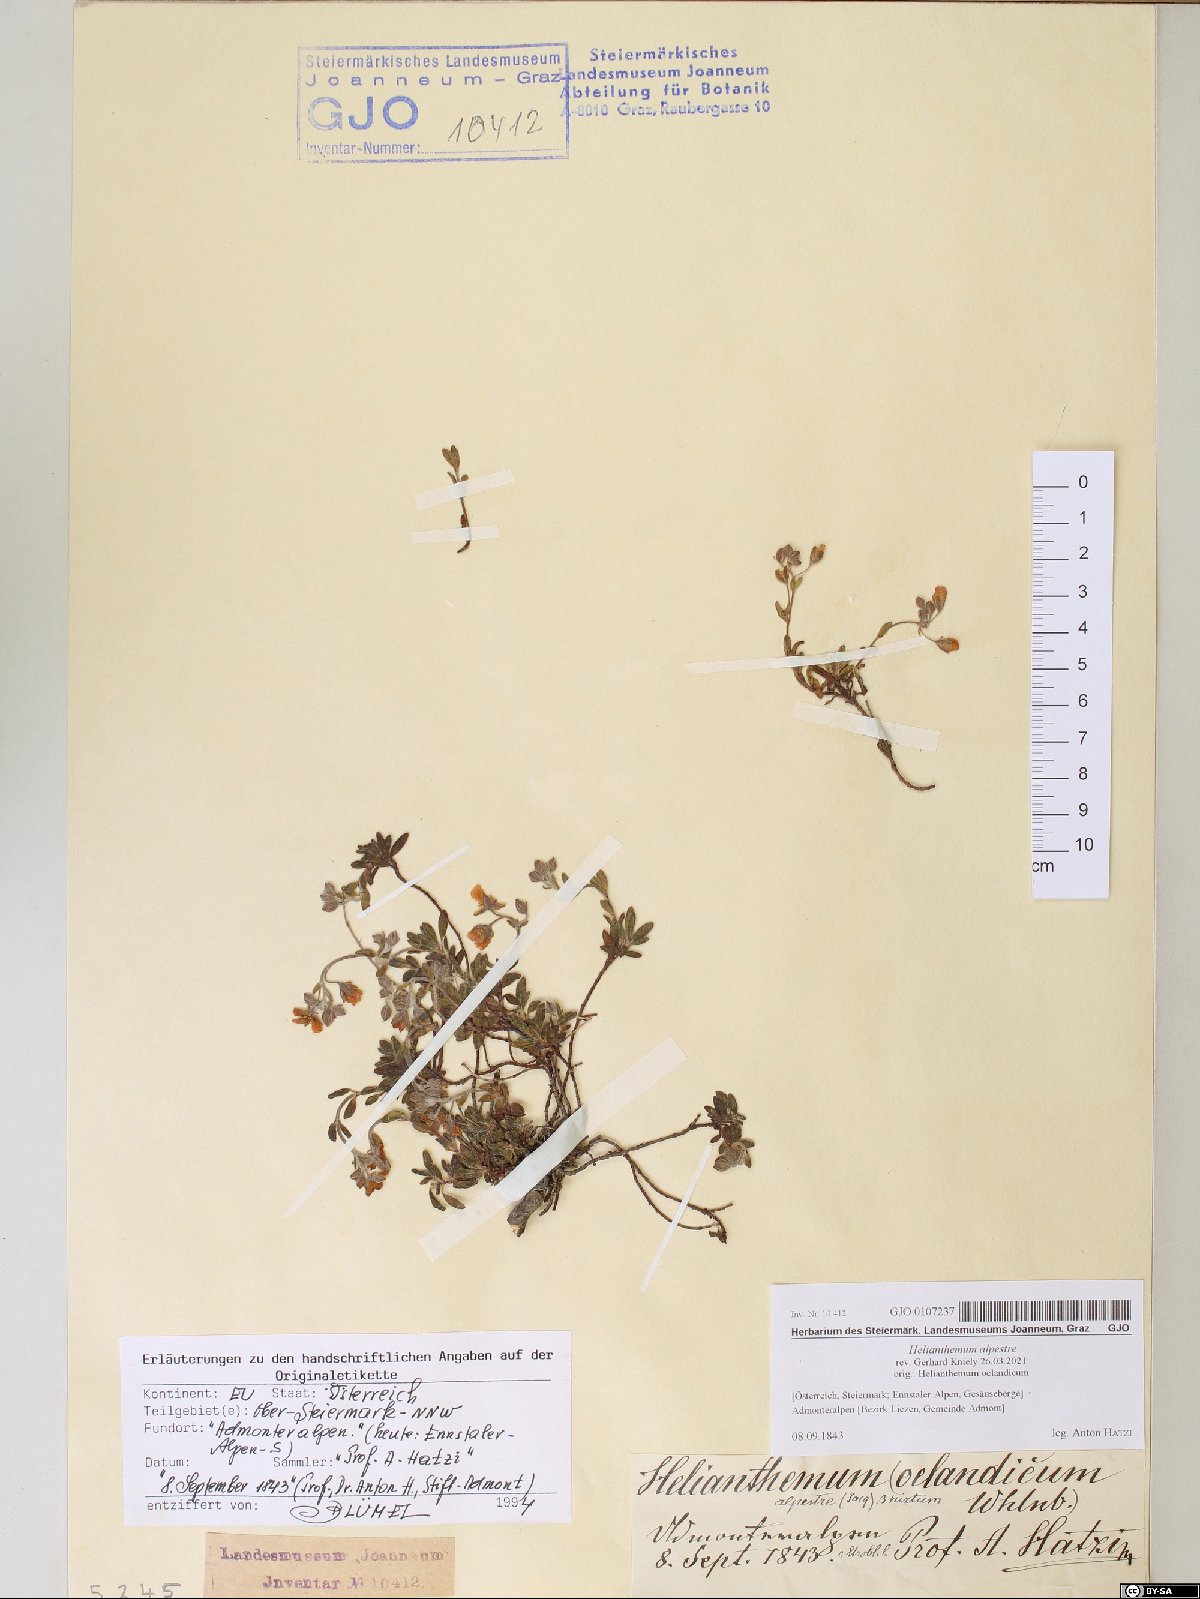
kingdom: Plantae
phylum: Tracheophyta
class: Magnoliopsida
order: Malvales
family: Cistaceae
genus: Helianthemum
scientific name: Helianthemum alpestre
